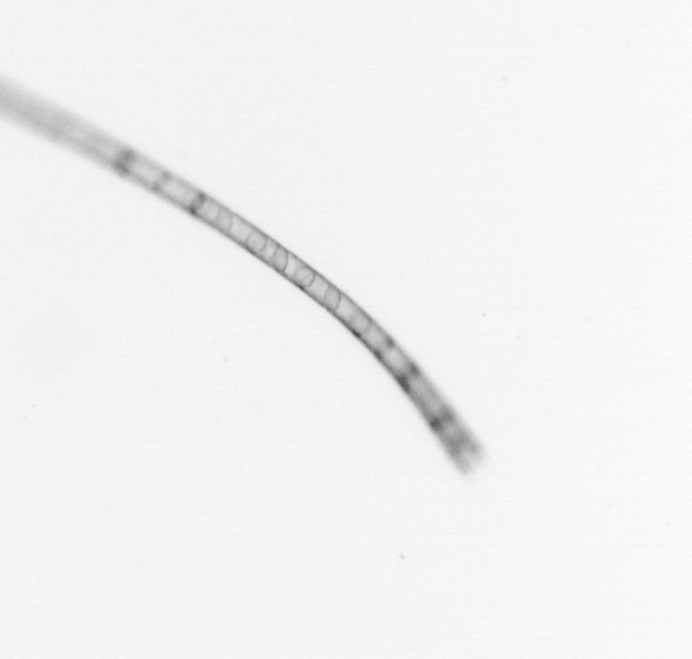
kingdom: Chromista
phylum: Ochrophyta
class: Bacillariophyceae
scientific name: Bacillariophyceae
